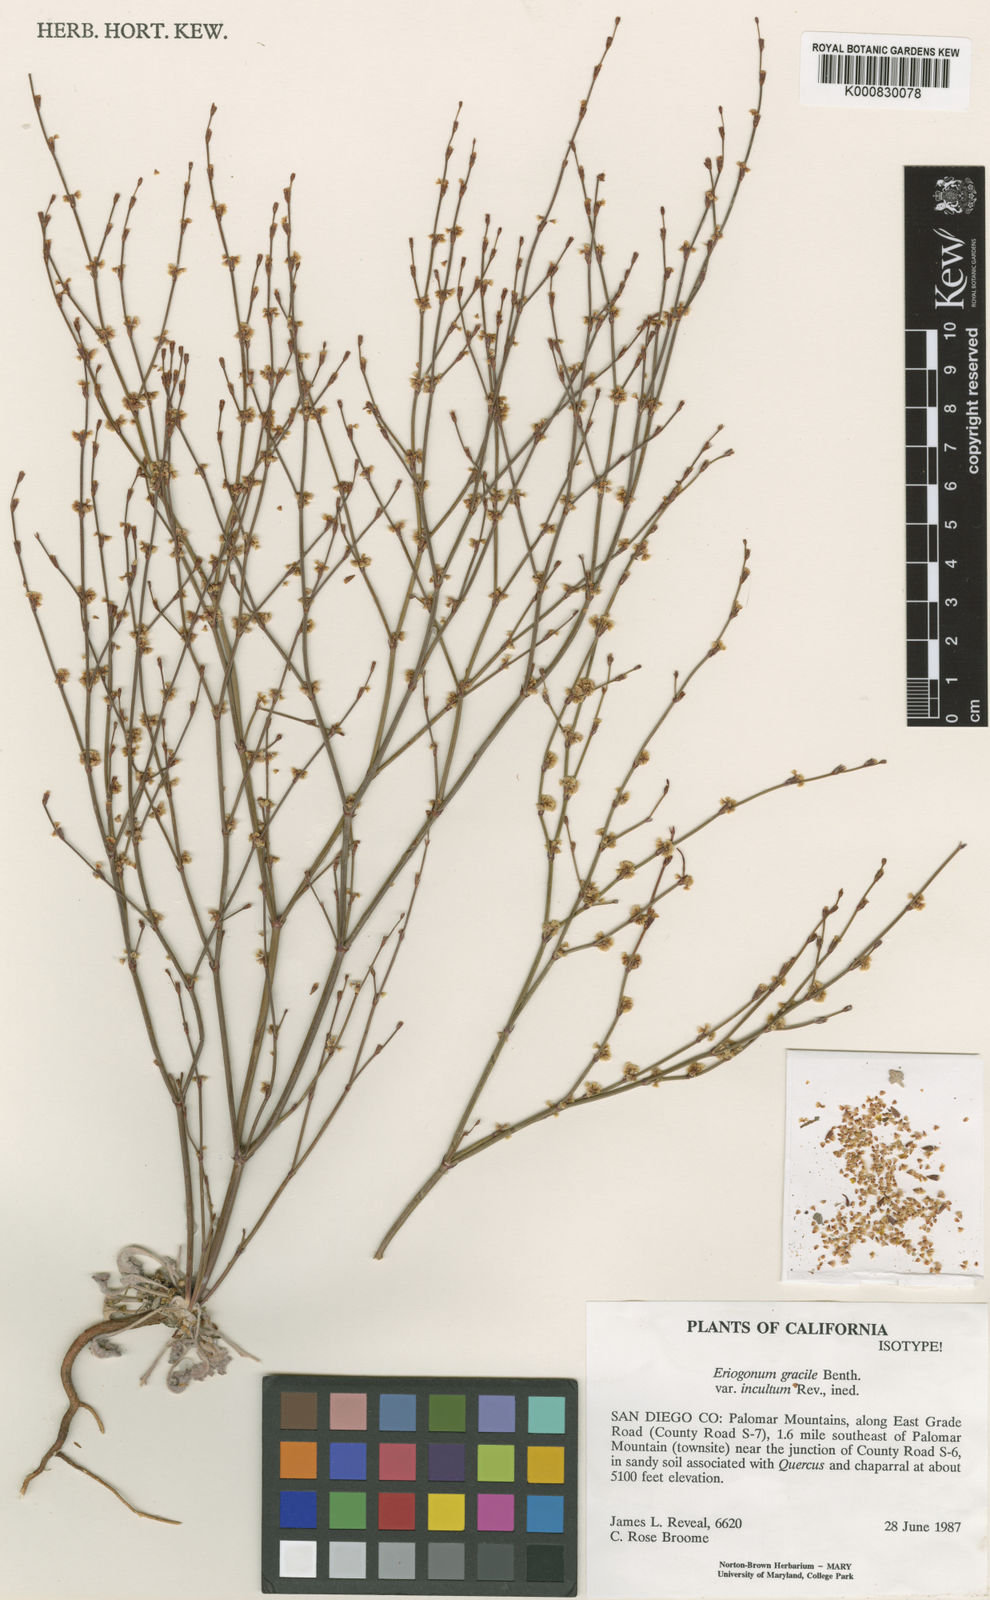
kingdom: Plantae
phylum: Tracheophyta
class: Magnoliopsida
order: Caryophyllales
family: Polygonaceae
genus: Eriogonum
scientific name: Eriogonum gracile
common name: Slender woolly buckwheat
